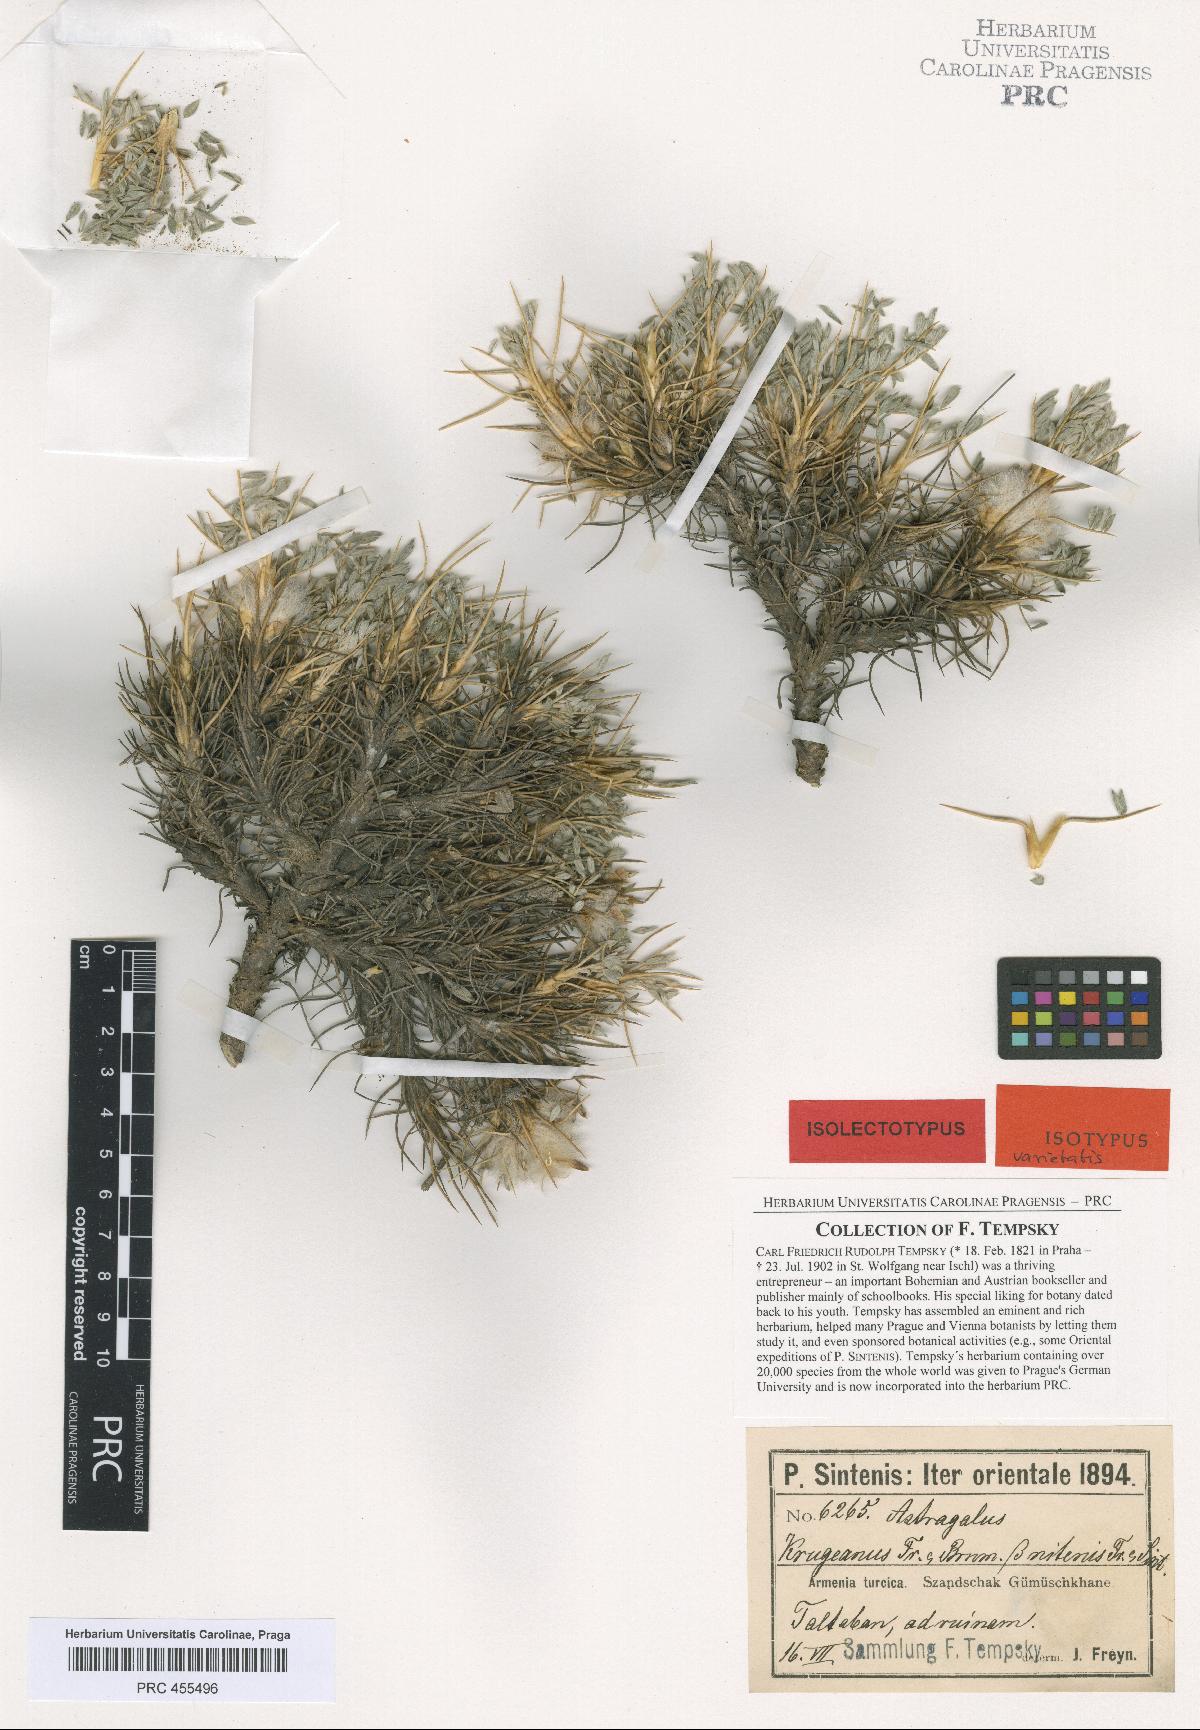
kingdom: Plantae
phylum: Tracheophyta
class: Magnoliopsida
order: Fabales
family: Fabaceae
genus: Astragalus
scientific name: Astragalus barba-jovis
